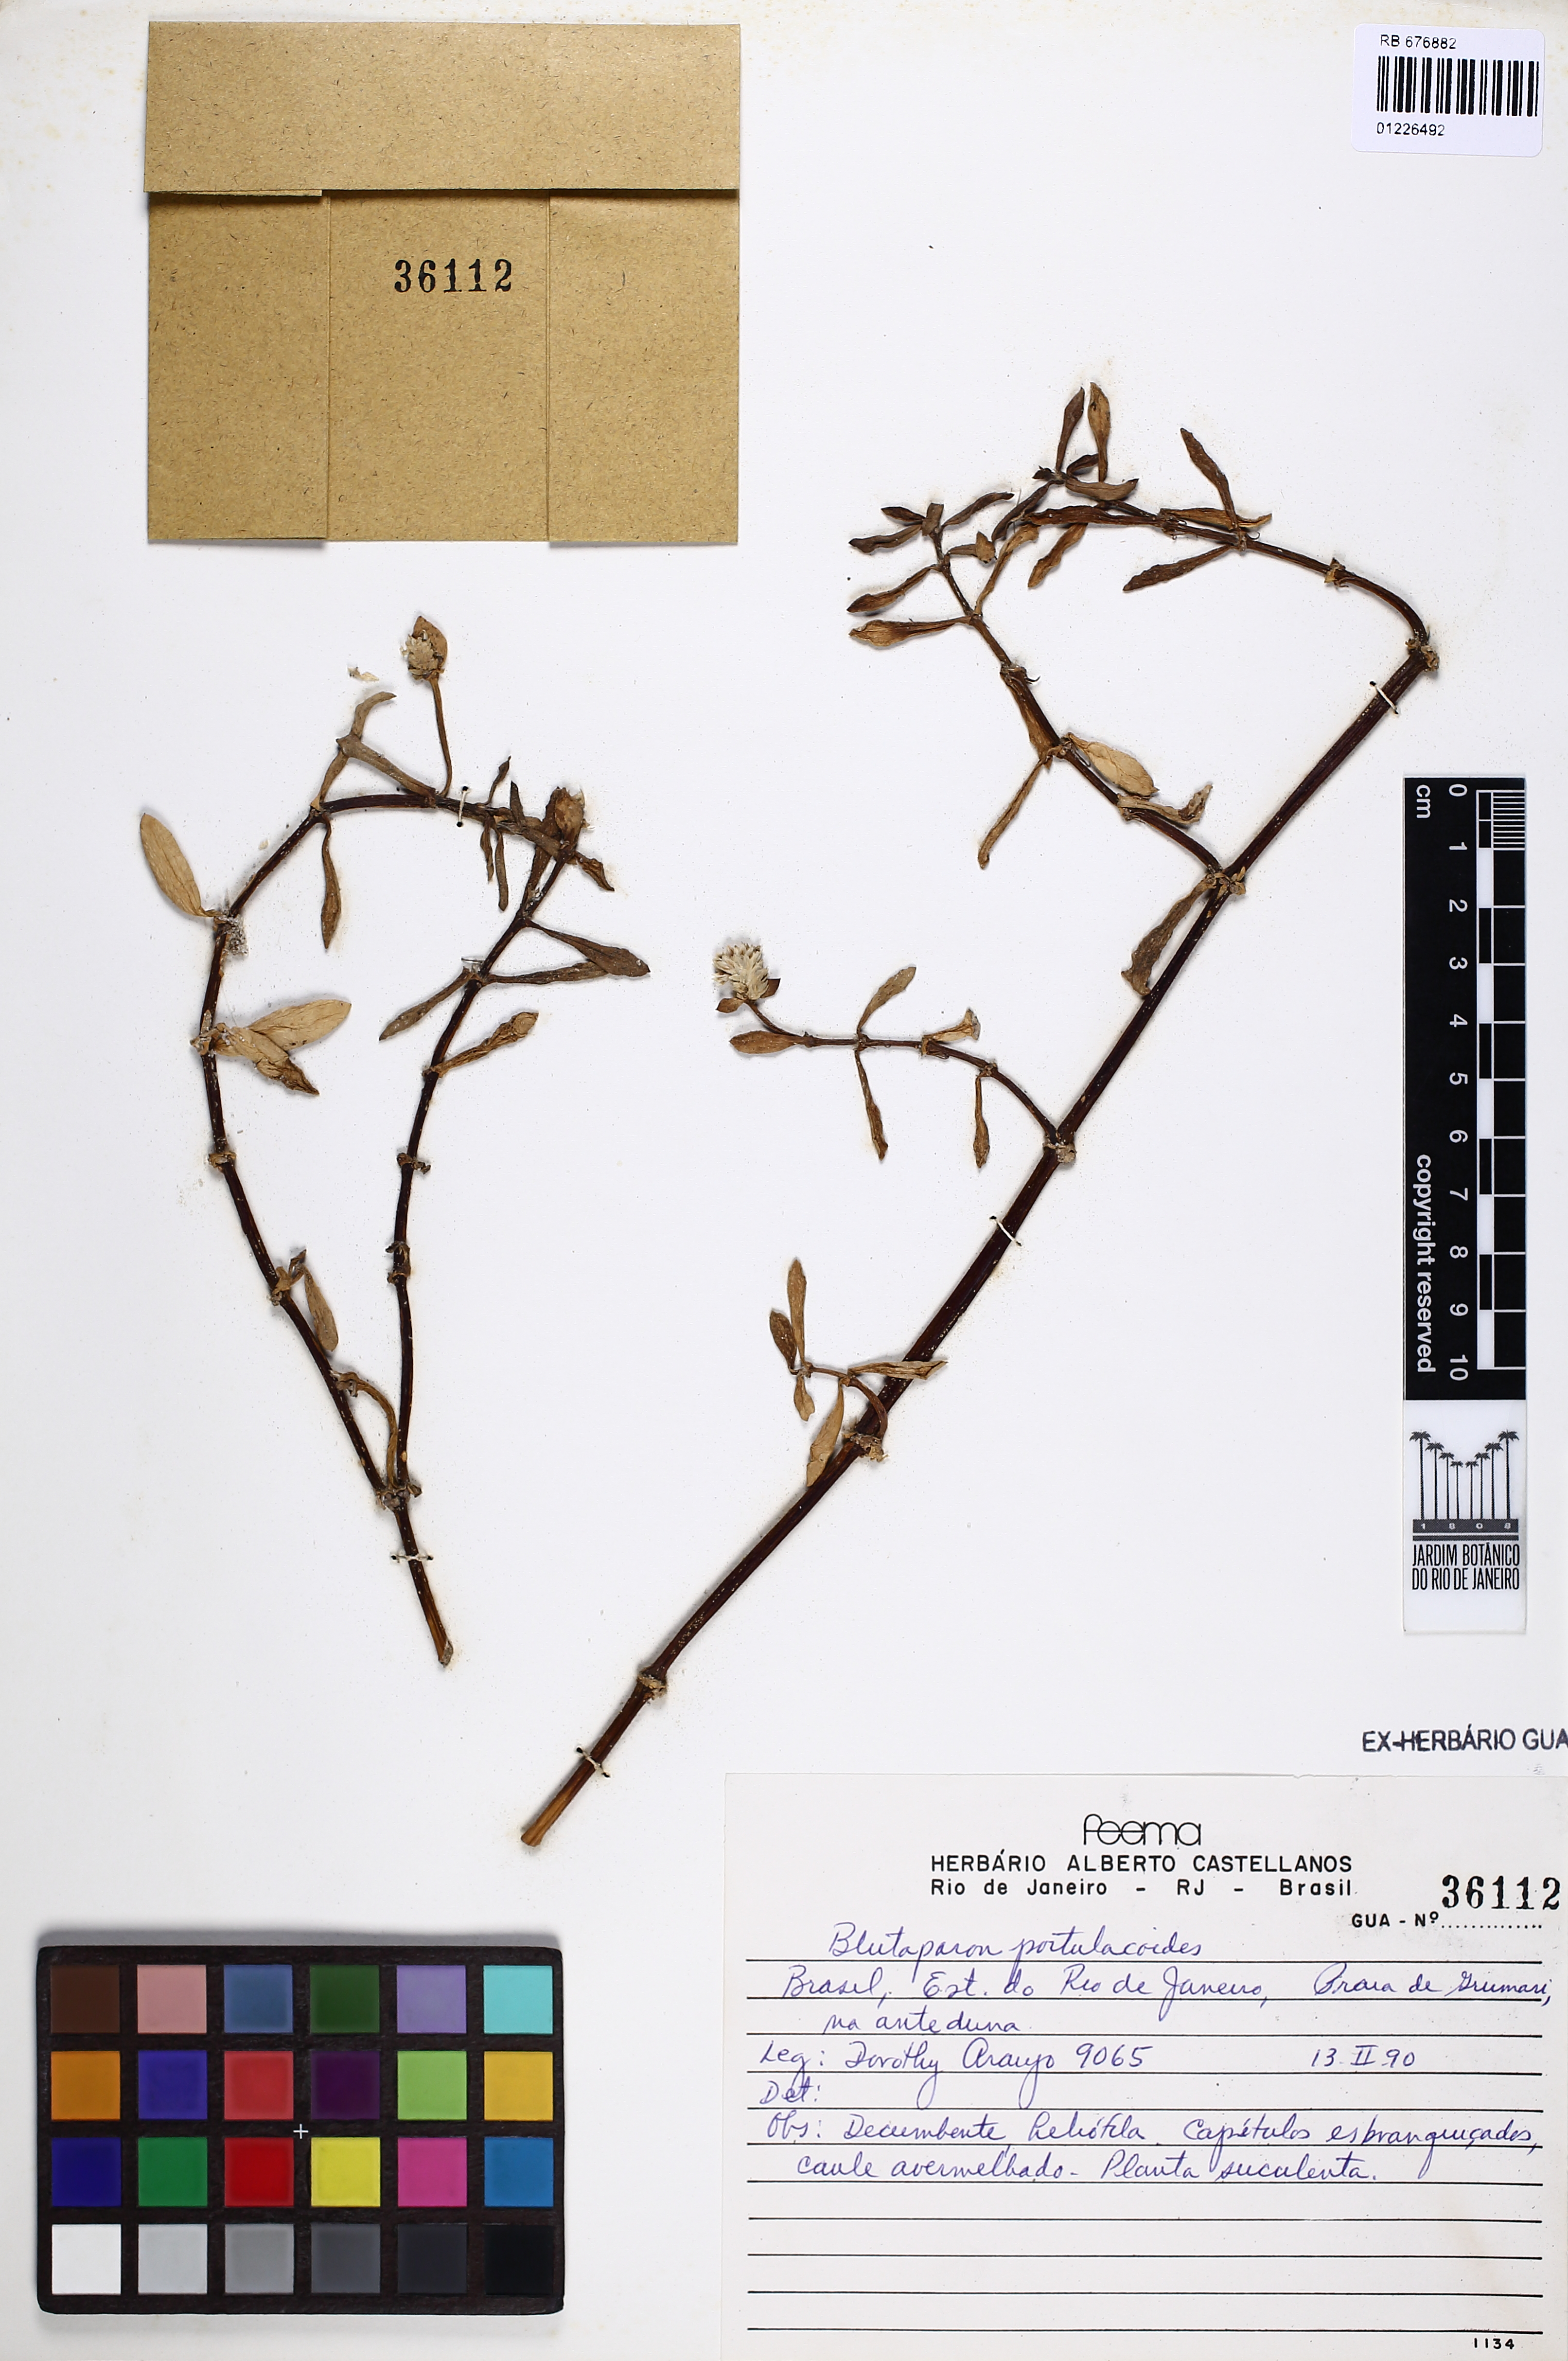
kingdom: Plantae
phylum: Tracheophyta
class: Magnoliopsida
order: Caryophyllales
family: Amaranthaceae
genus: Gomphrena
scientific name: Gomphrena portulacoides
